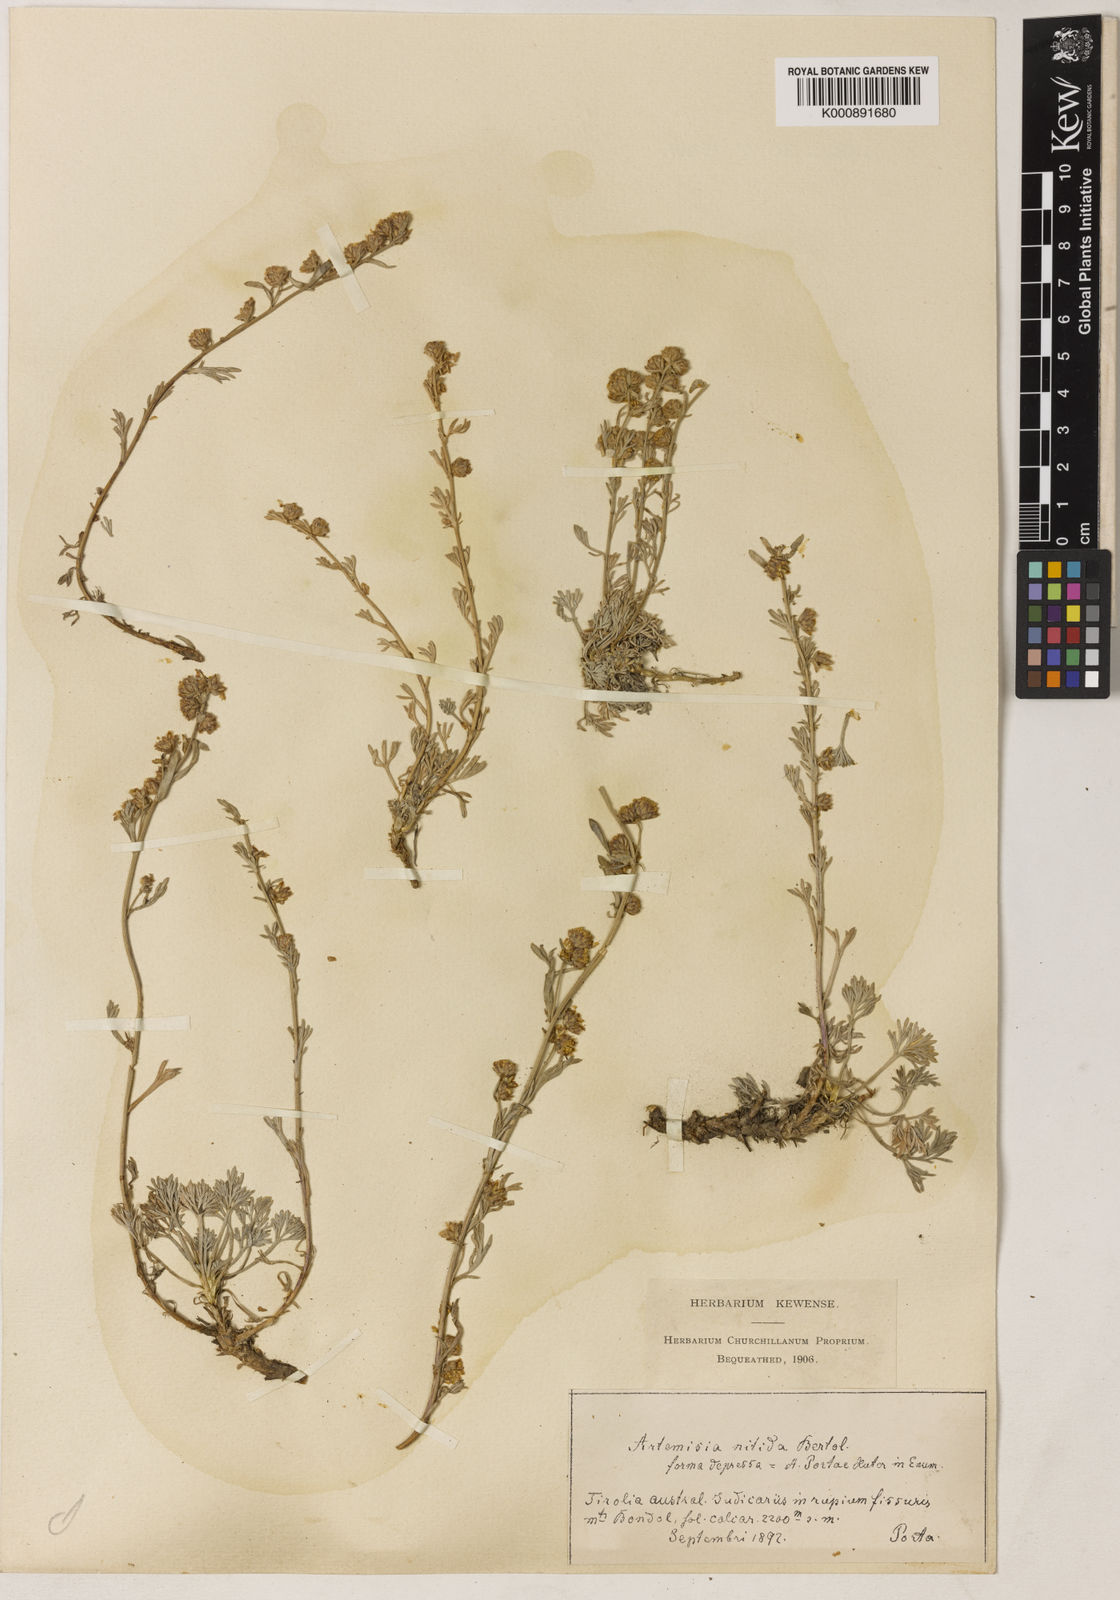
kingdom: Plantae
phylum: Tracheophyta
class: Magnoliopsida
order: Asterales
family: Asteraceae
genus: Artemisia
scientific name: Artemisia nitida
